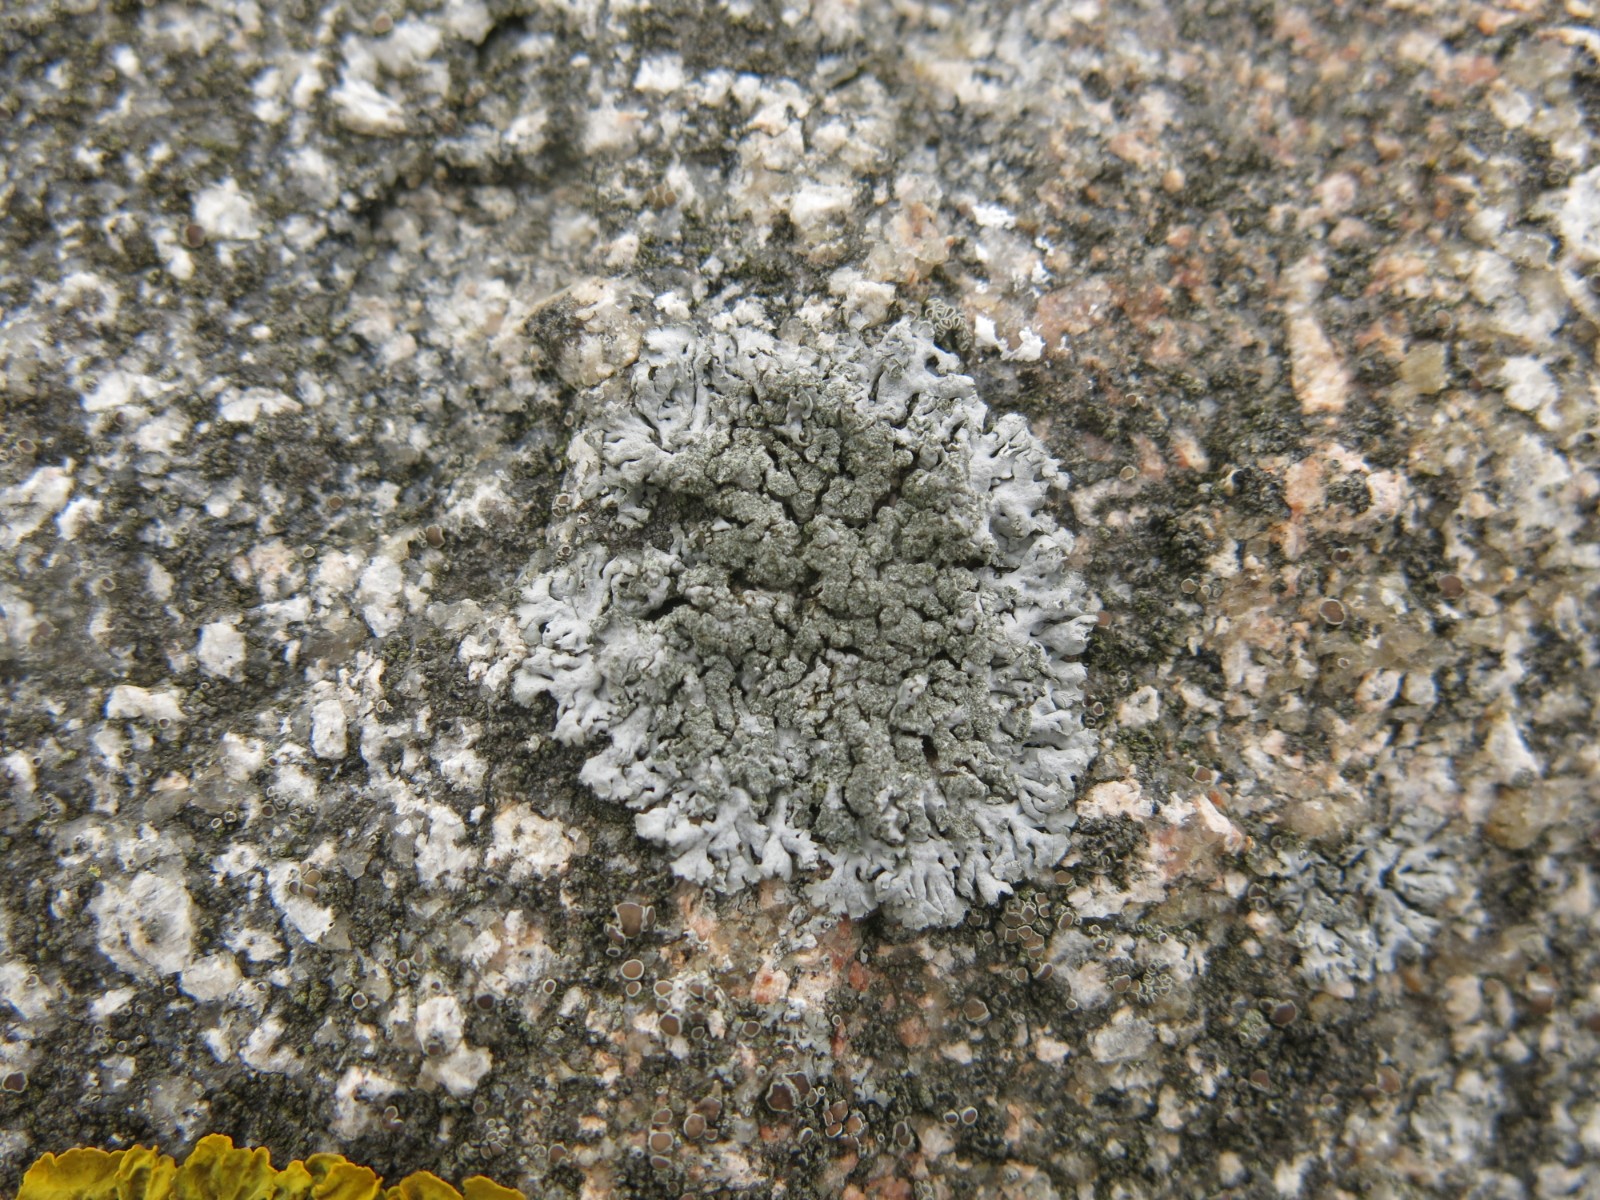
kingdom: Fungi
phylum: Ascomycota
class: Lecanoromycetes
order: Caliciales
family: Physciaceae
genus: Physcia
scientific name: Physcia caesia
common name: blågrå rosetlav
